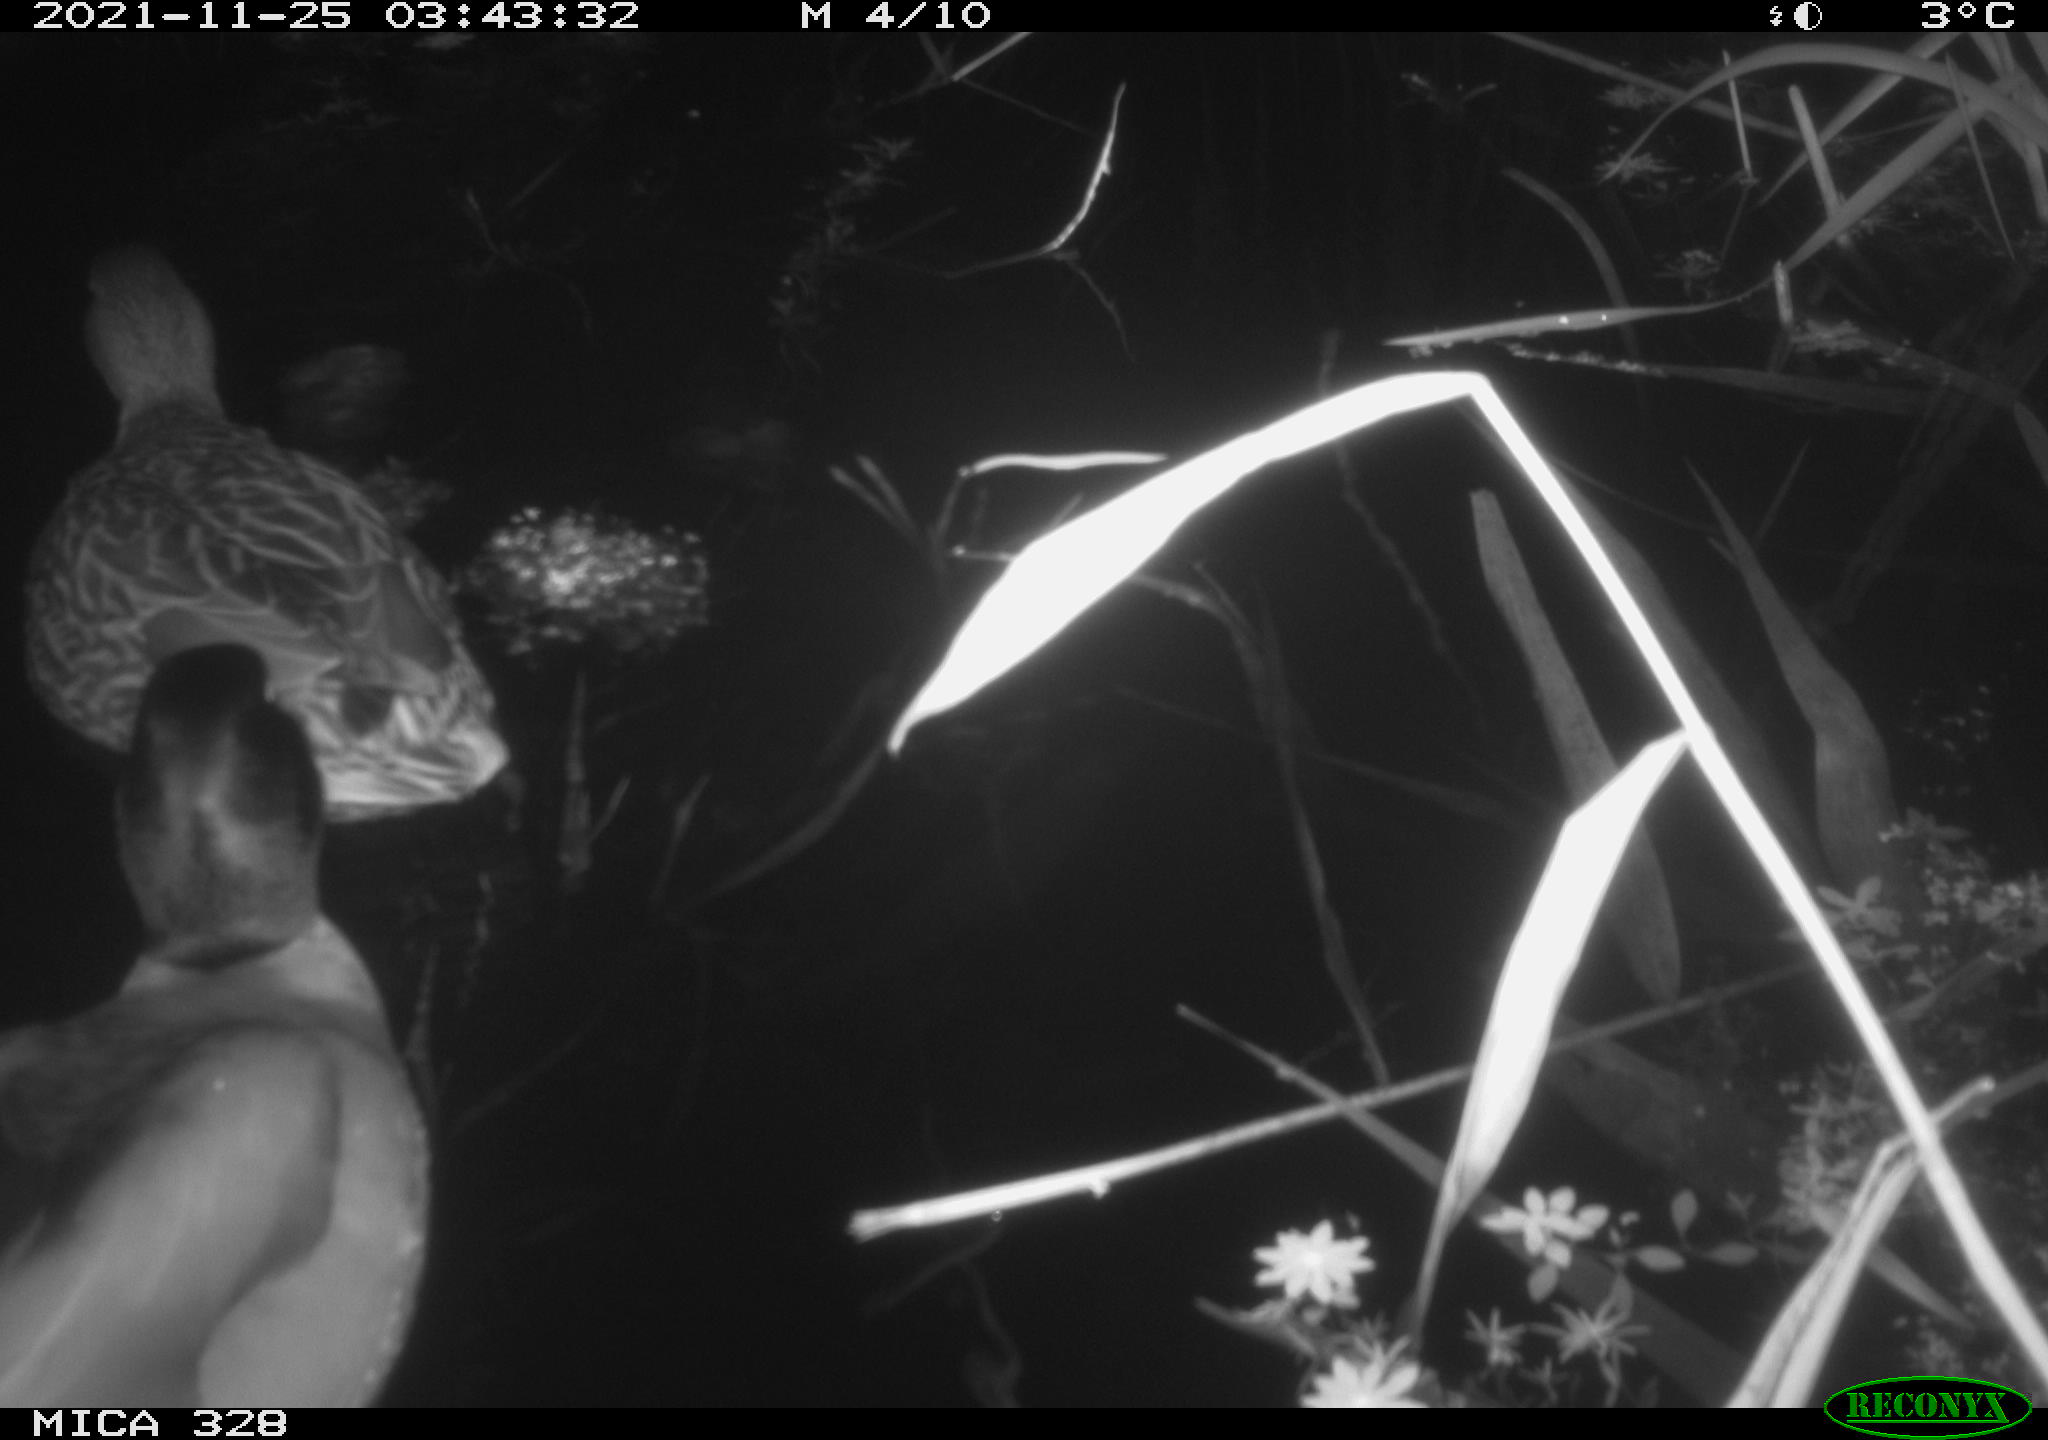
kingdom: Animalia
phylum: Chordata
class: Aves
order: Anseriformes
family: Anatidae
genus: Anas
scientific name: Anas platyrhynchos
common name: Mallard
